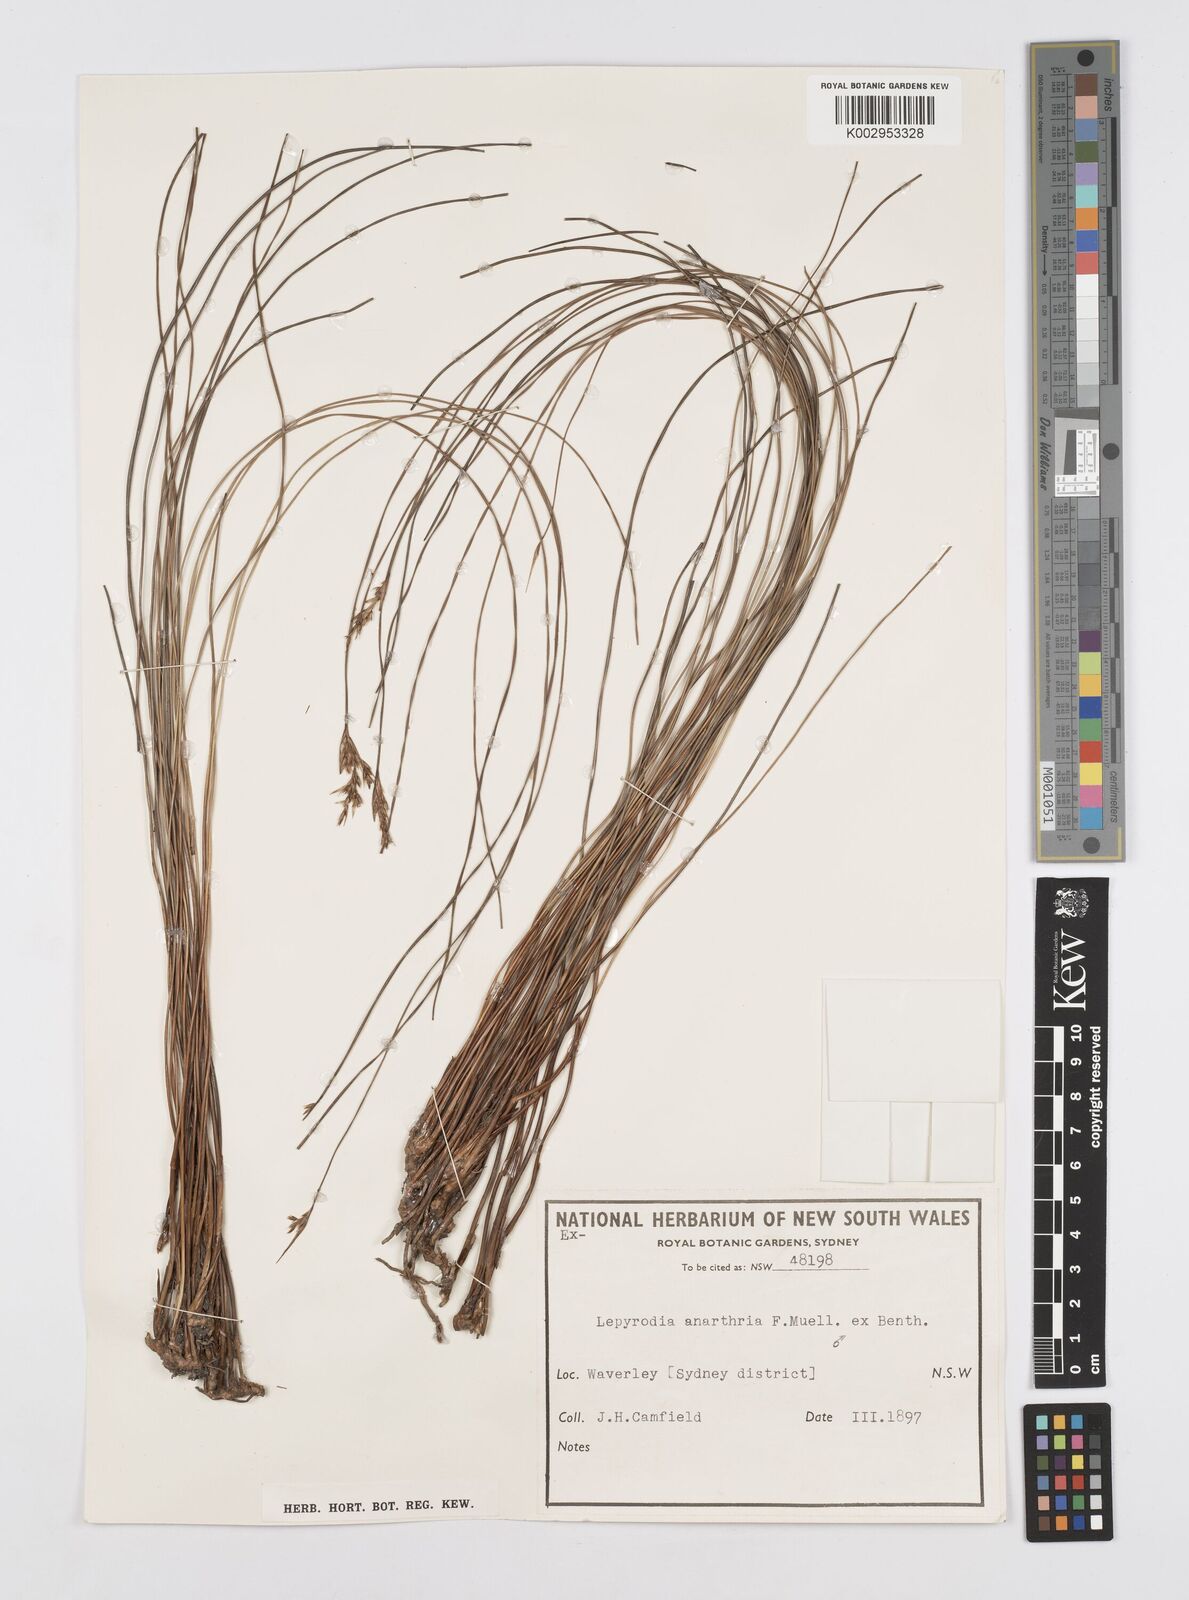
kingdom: Plantae
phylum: Tracheophyta
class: Liliopsida
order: Poales
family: Restionaceae
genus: Lepyrodia
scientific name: Lepyrodia anarthria
